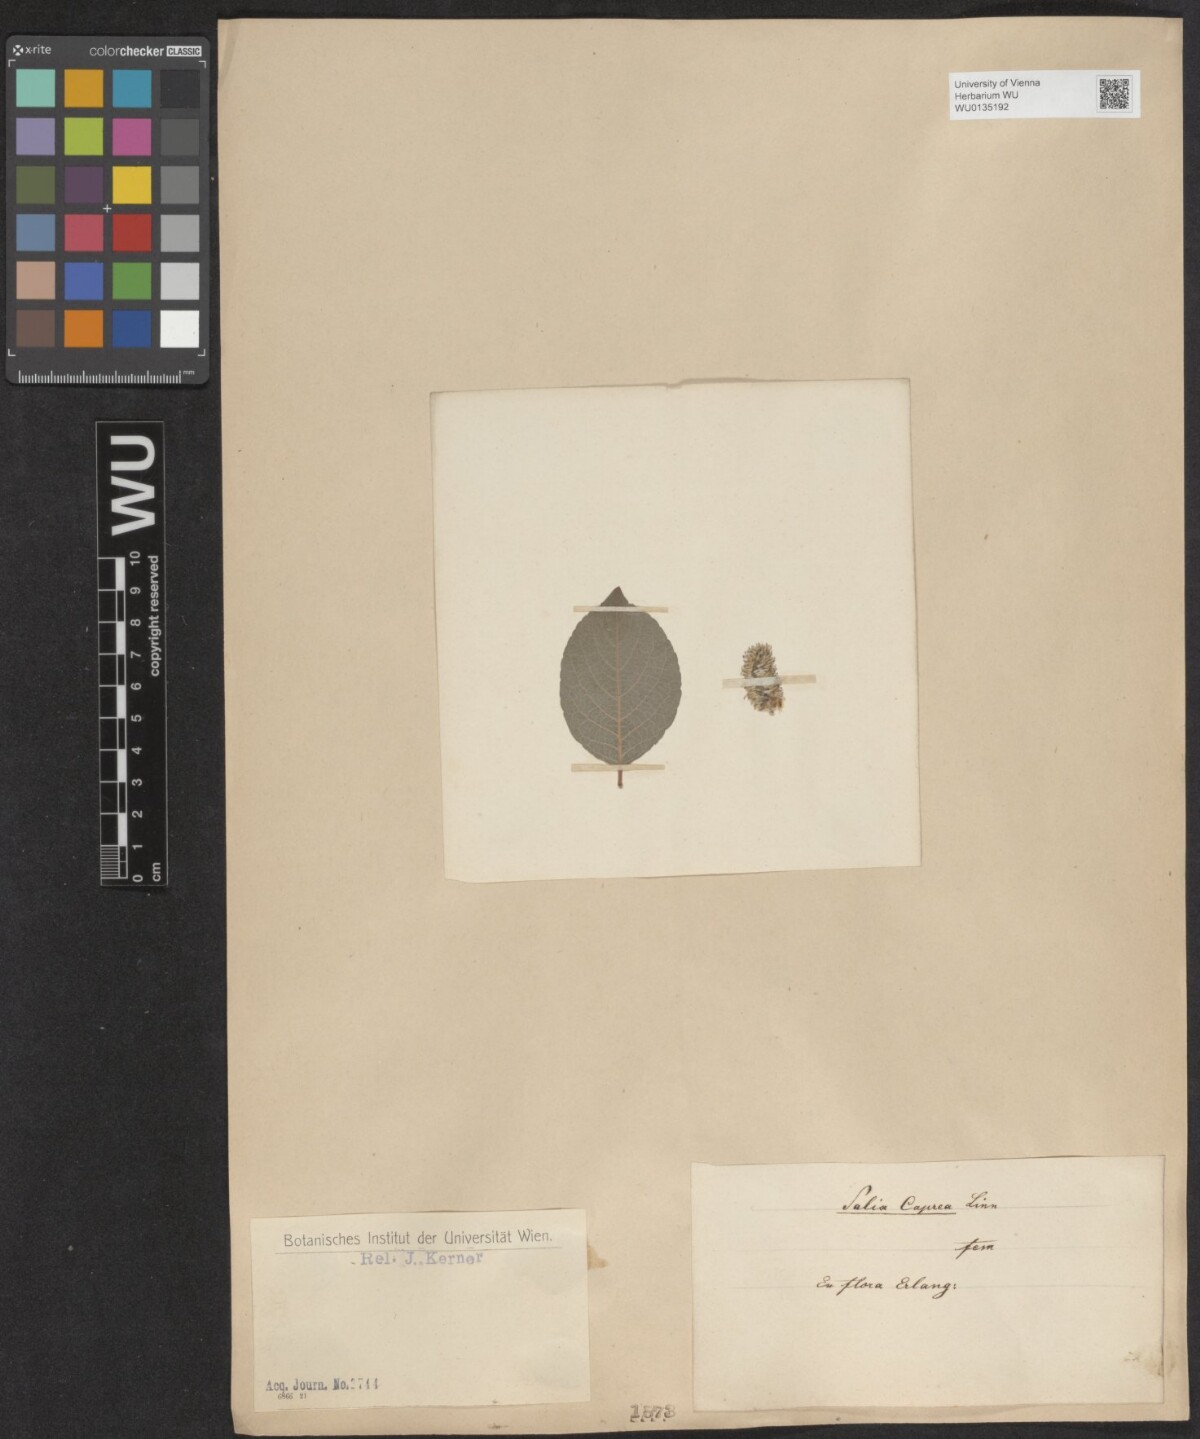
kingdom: Plantae
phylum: Tracheophyta
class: Magnoliopsida
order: Malpighiales
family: Salicaceae
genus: Salix
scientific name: Salix caprea
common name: Goat willow
